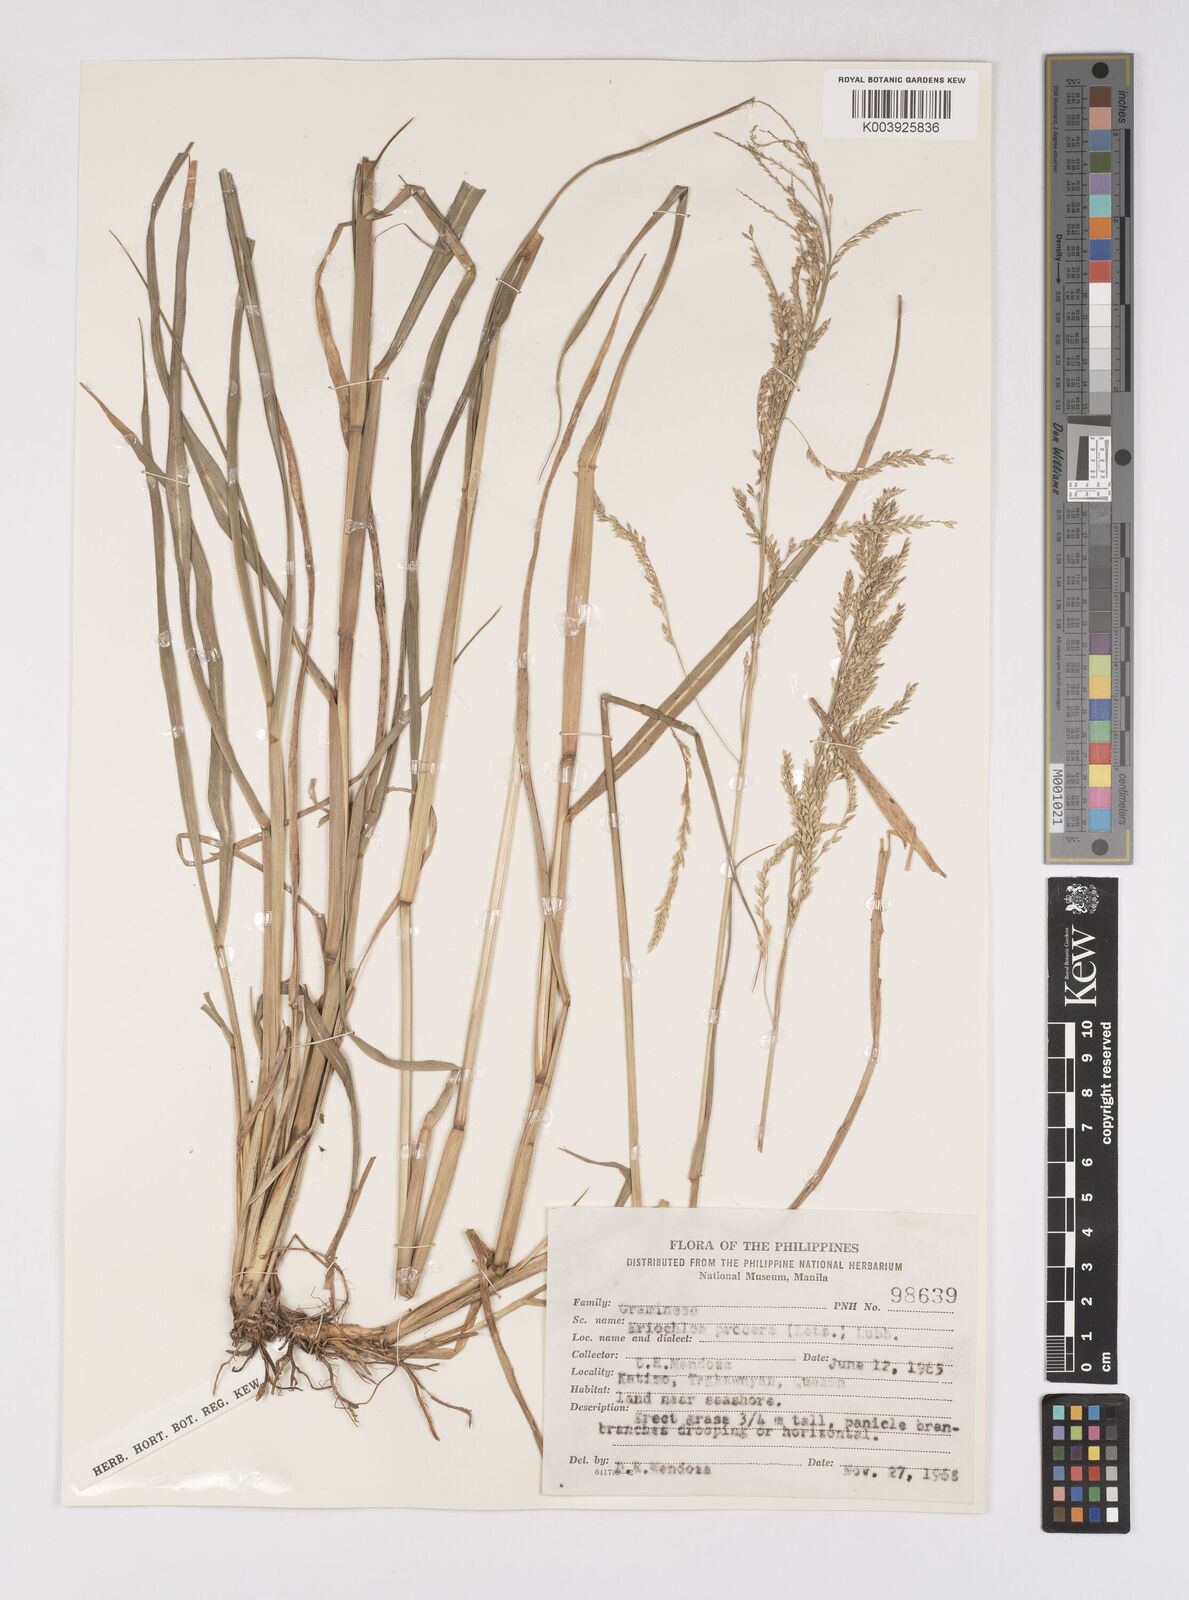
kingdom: Plantae
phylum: Tracheophyta
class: Liliopsida
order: Poales
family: Poaceae
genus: Eriochloa
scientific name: Eriochloa procera
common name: Spring grass
